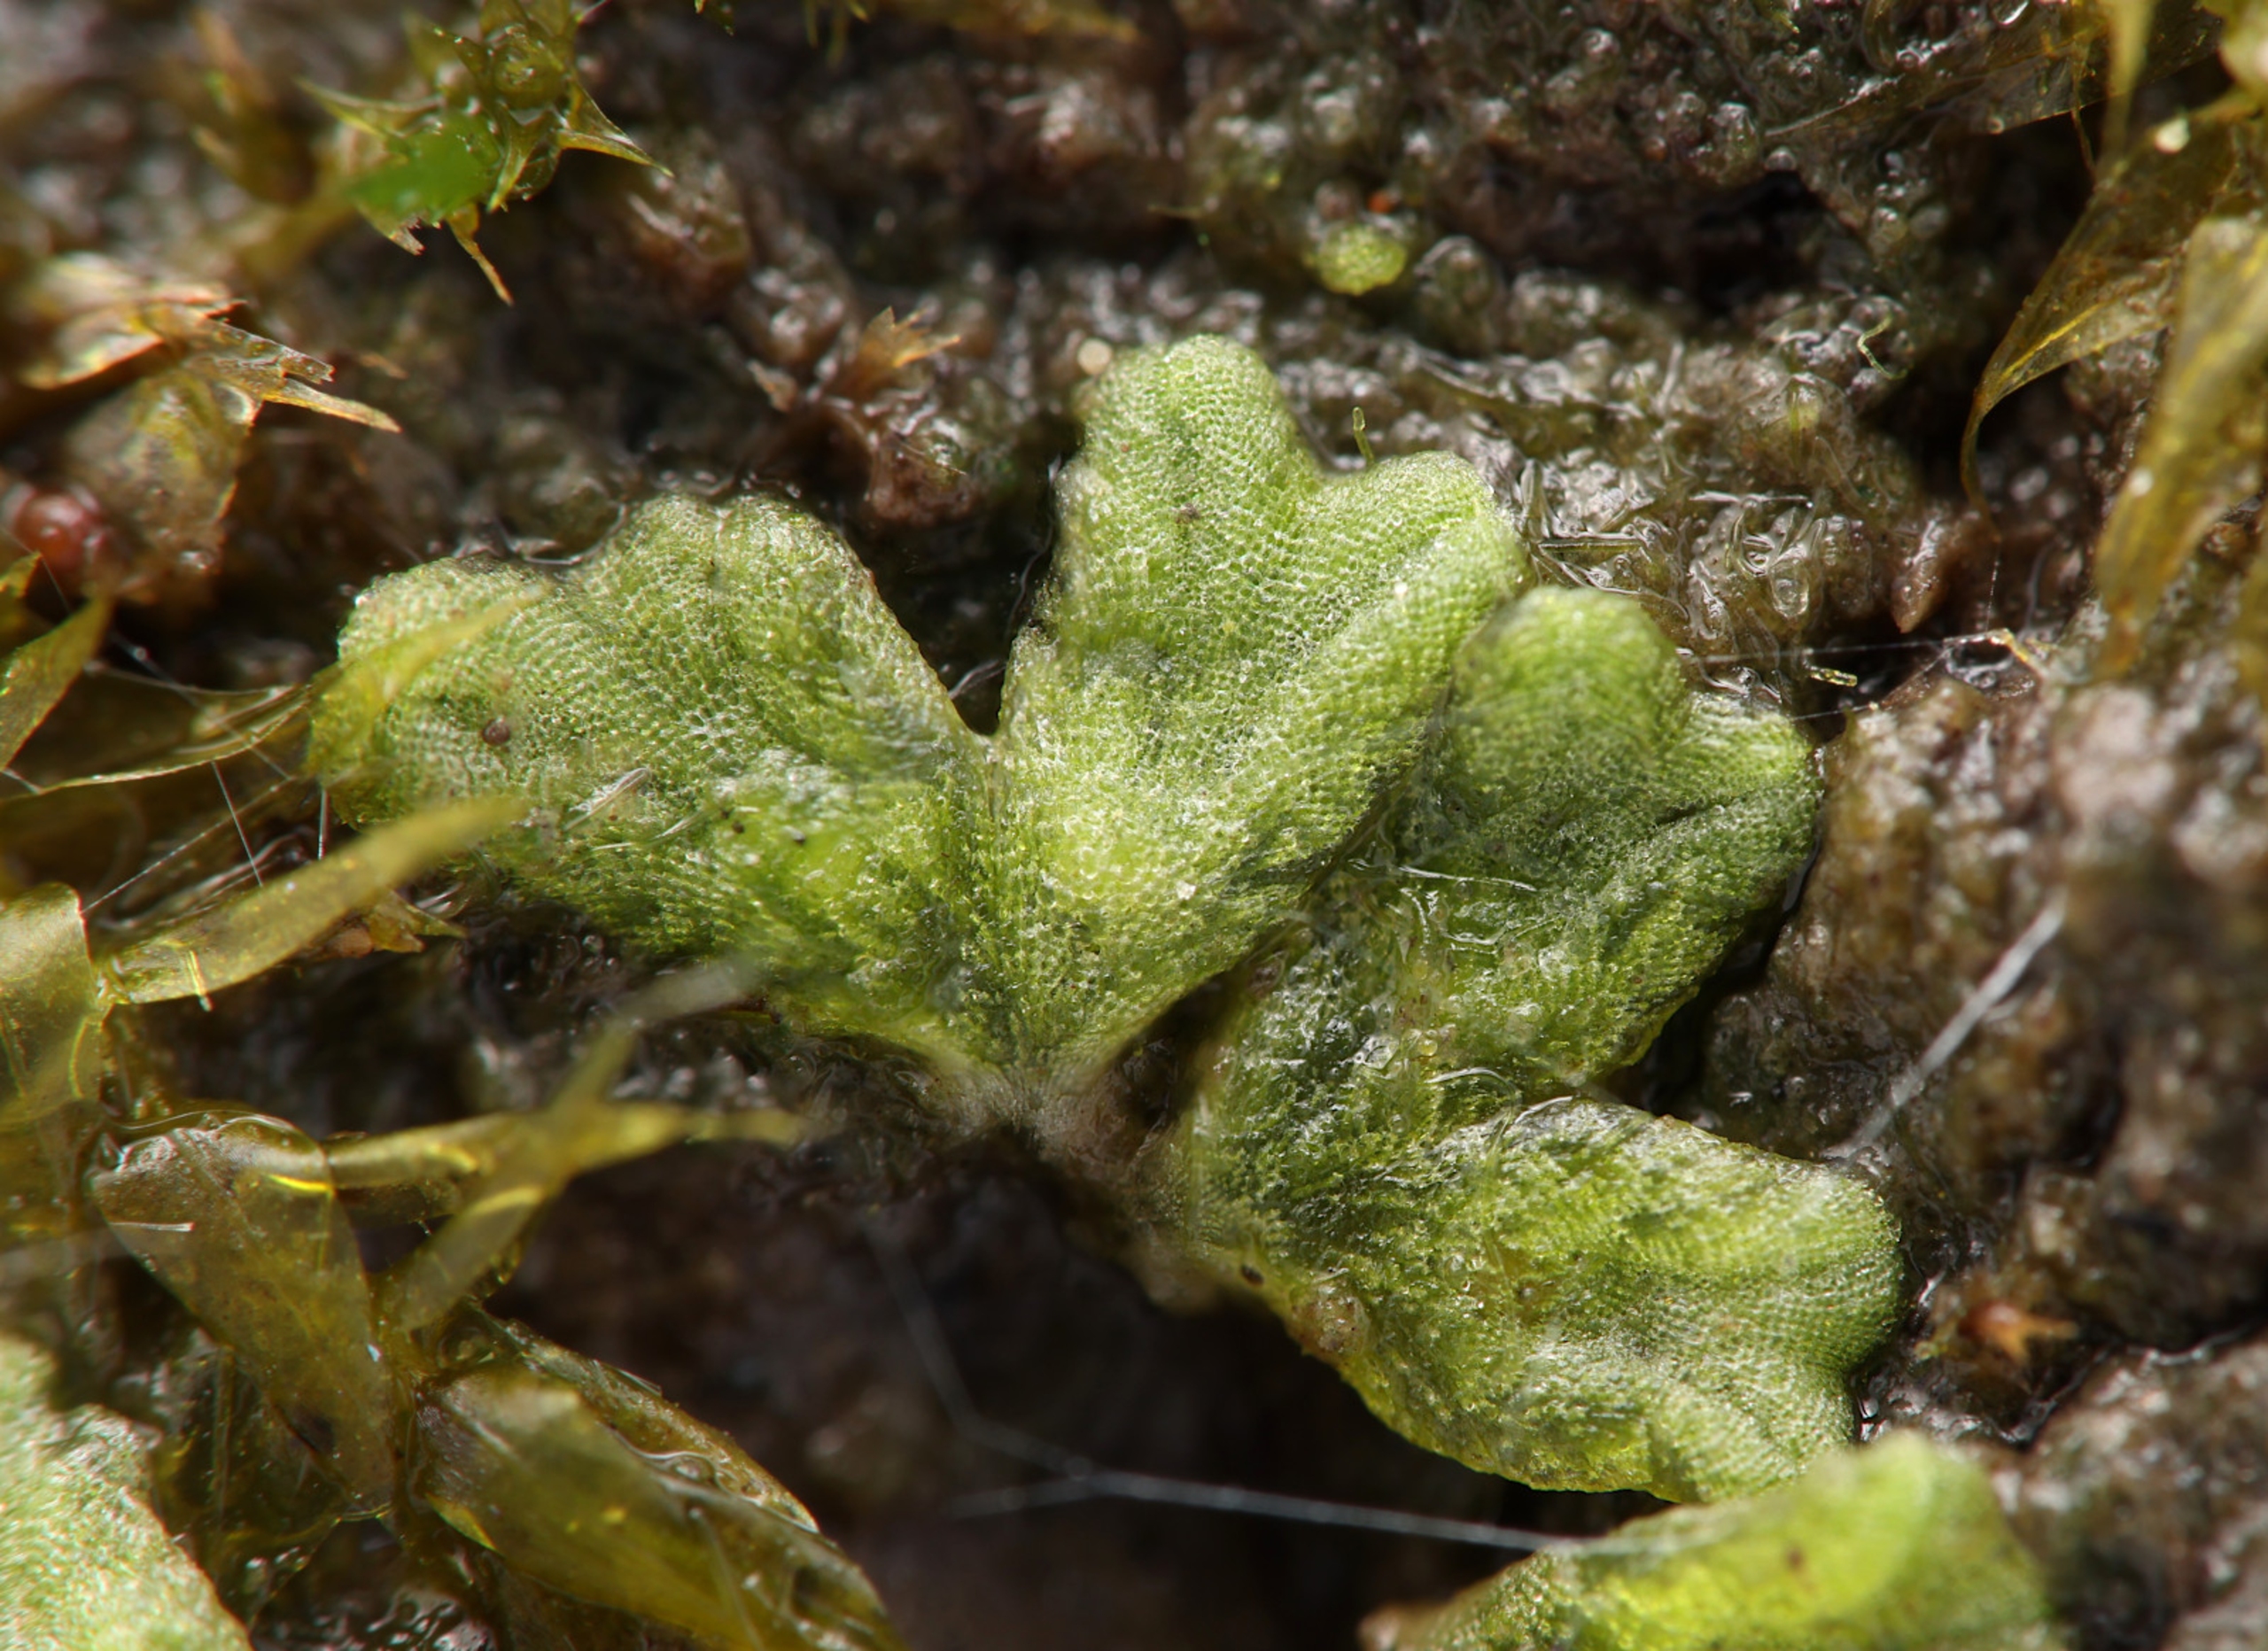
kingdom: Plantae
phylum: Marchantiophyta
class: Marchantiopsida
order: Marchantiales
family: Ricciaceae
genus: Riccia
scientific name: Riccia glauca
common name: Blågrøn stjerneløv
